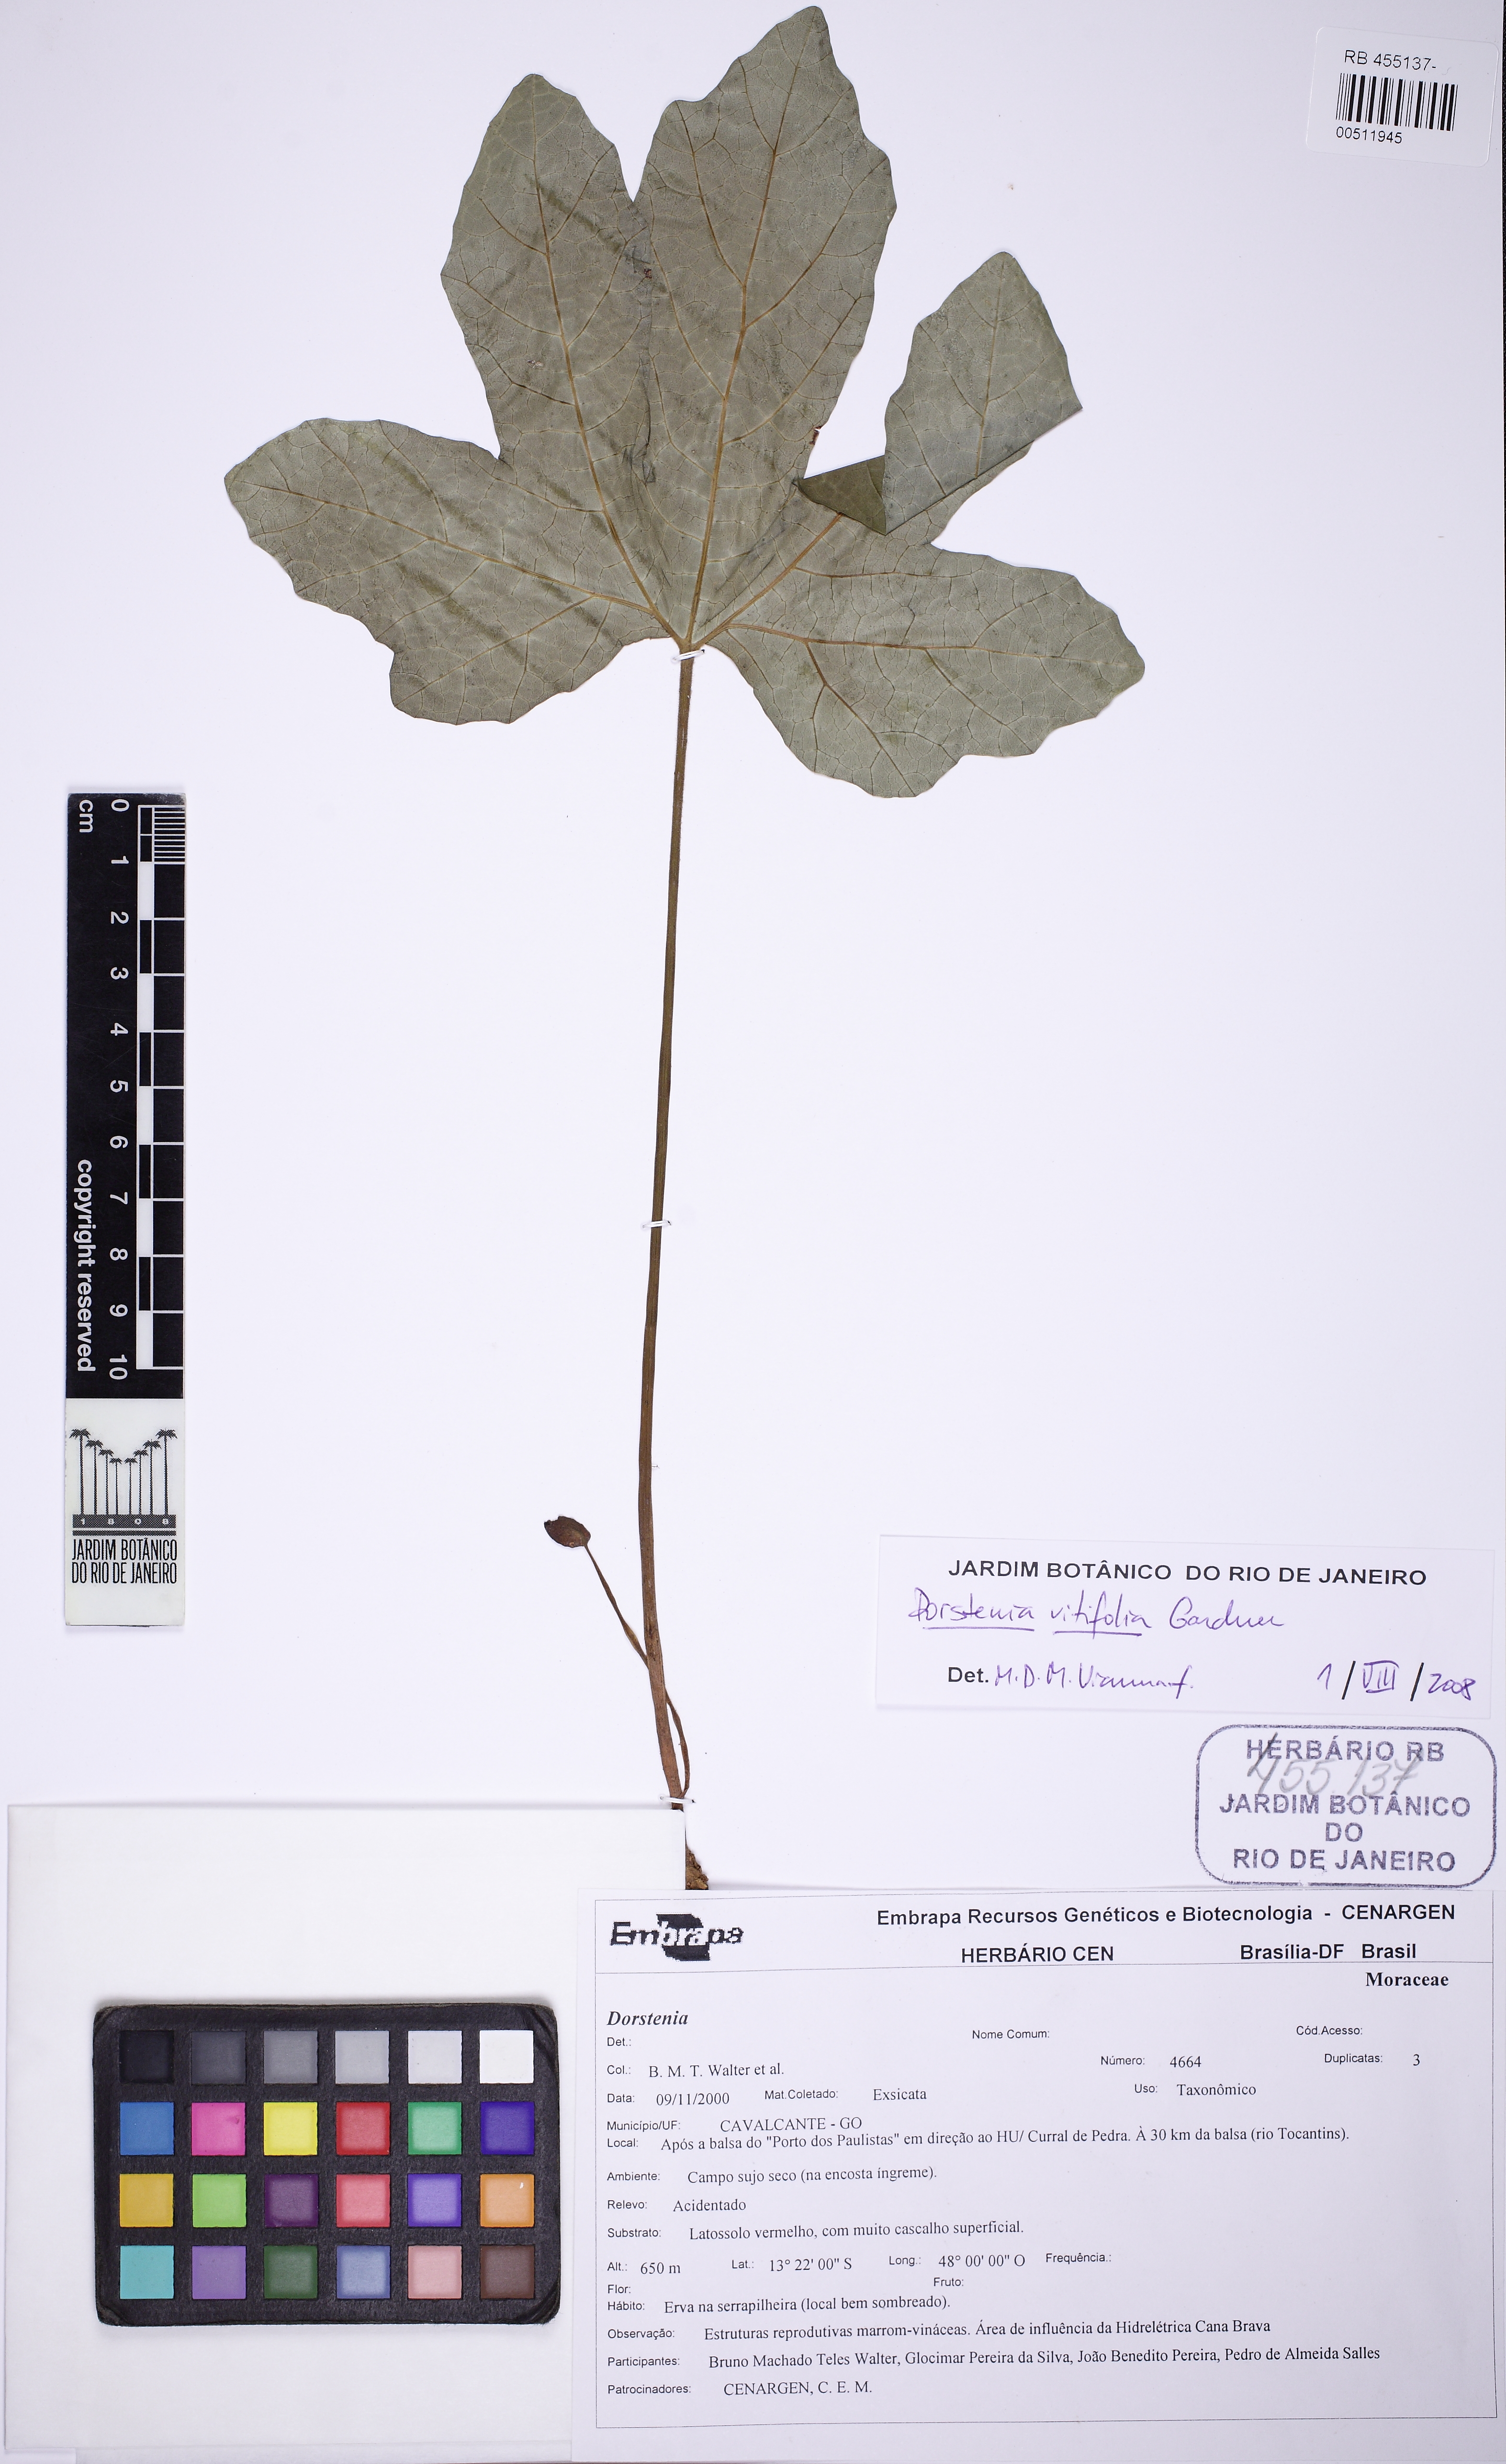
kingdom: Plantae
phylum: Tracheophyta
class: Magnoliopsida
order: Rosales
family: Moraceae
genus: Dorstenia
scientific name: Dorstenia cayapia
